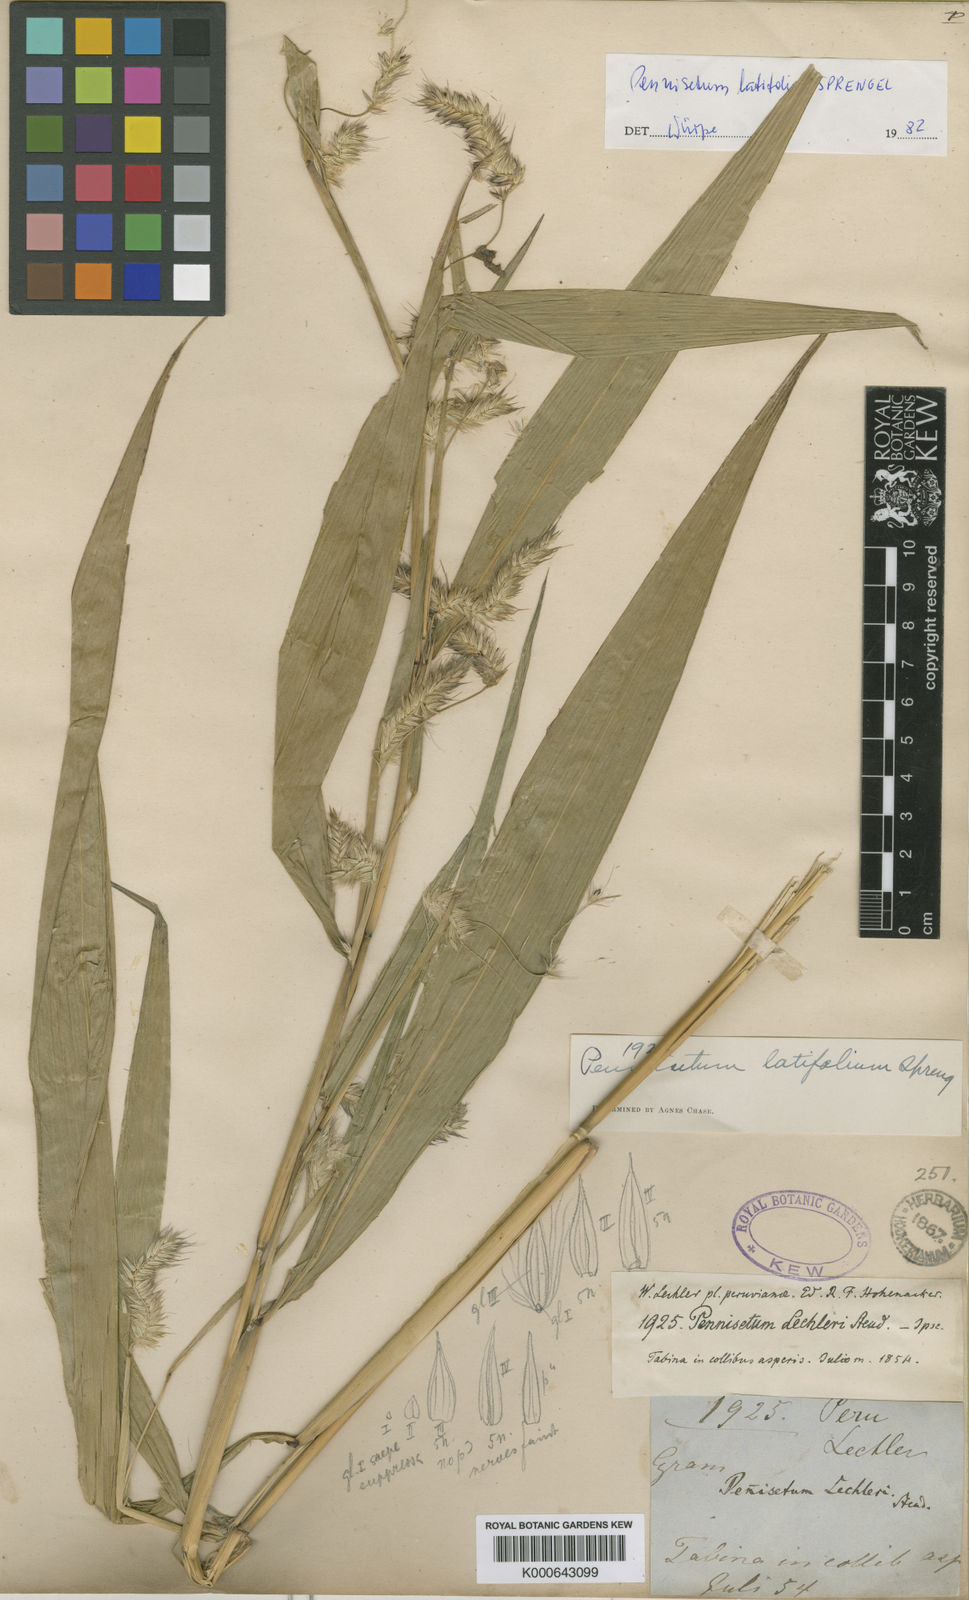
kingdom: Plantae
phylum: Tracheophyta
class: Liliopsida
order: Poales
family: Poaceae
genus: Cenchrus
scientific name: Cenchrus latifolius
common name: Sandbur
